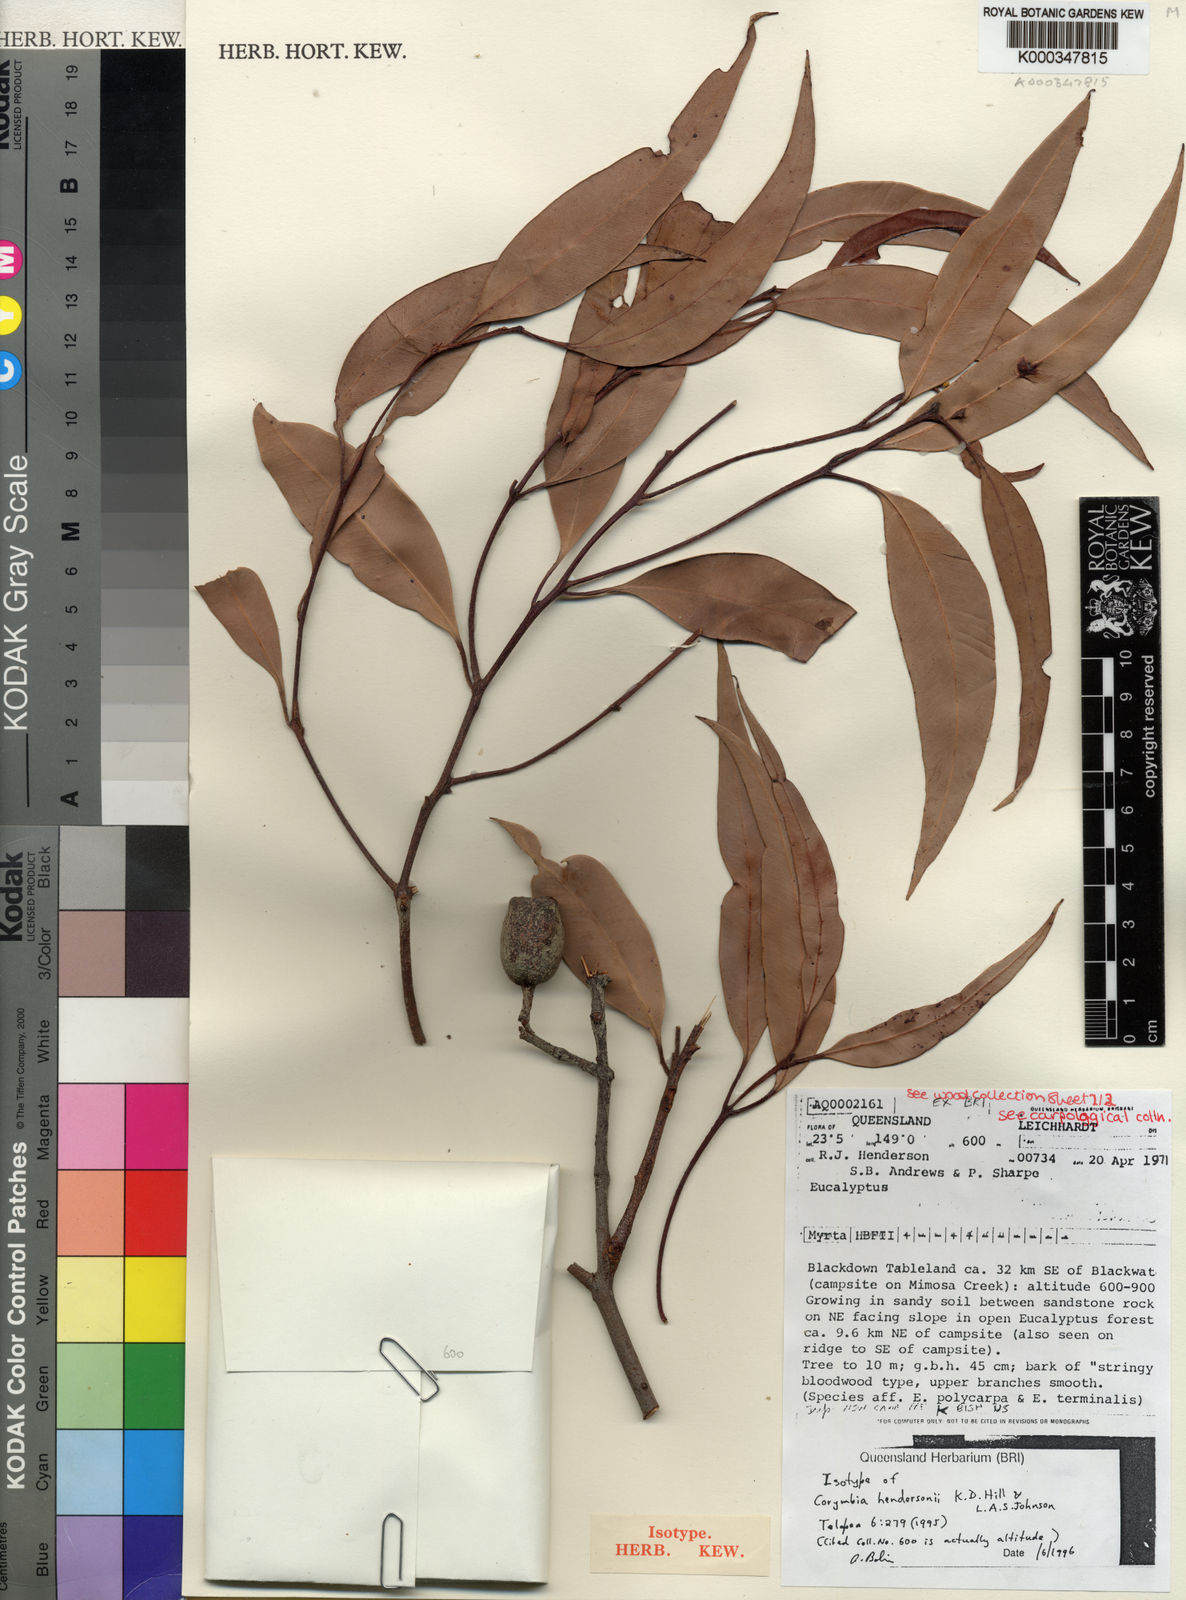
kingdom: Plantae
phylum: Tracheophyta
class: Magnoliopsida
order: Myrtales
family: Myrtaceae
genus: Corymbia
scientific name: Corymbia hendersonii
